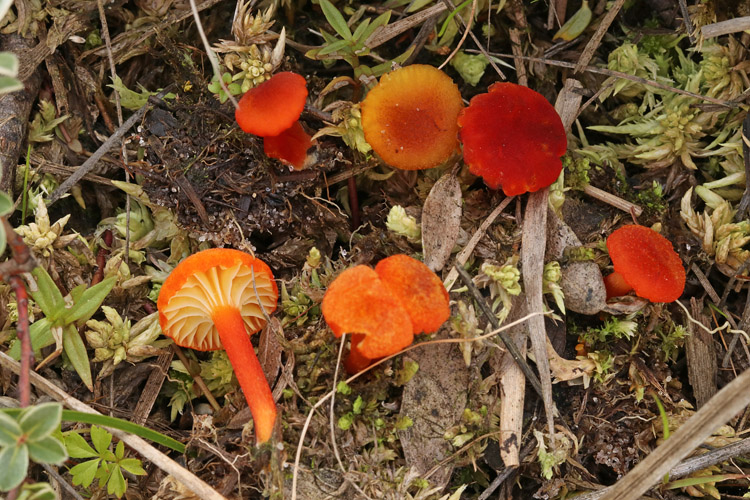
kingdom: Fungi
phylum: Basidiomycota
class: Agaricomycetes
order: Agaricales
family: Hygrophoraceae
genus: Hygrocybe
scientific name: Hygrocybe coccineocrenata
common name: tørvemos-vokshat
